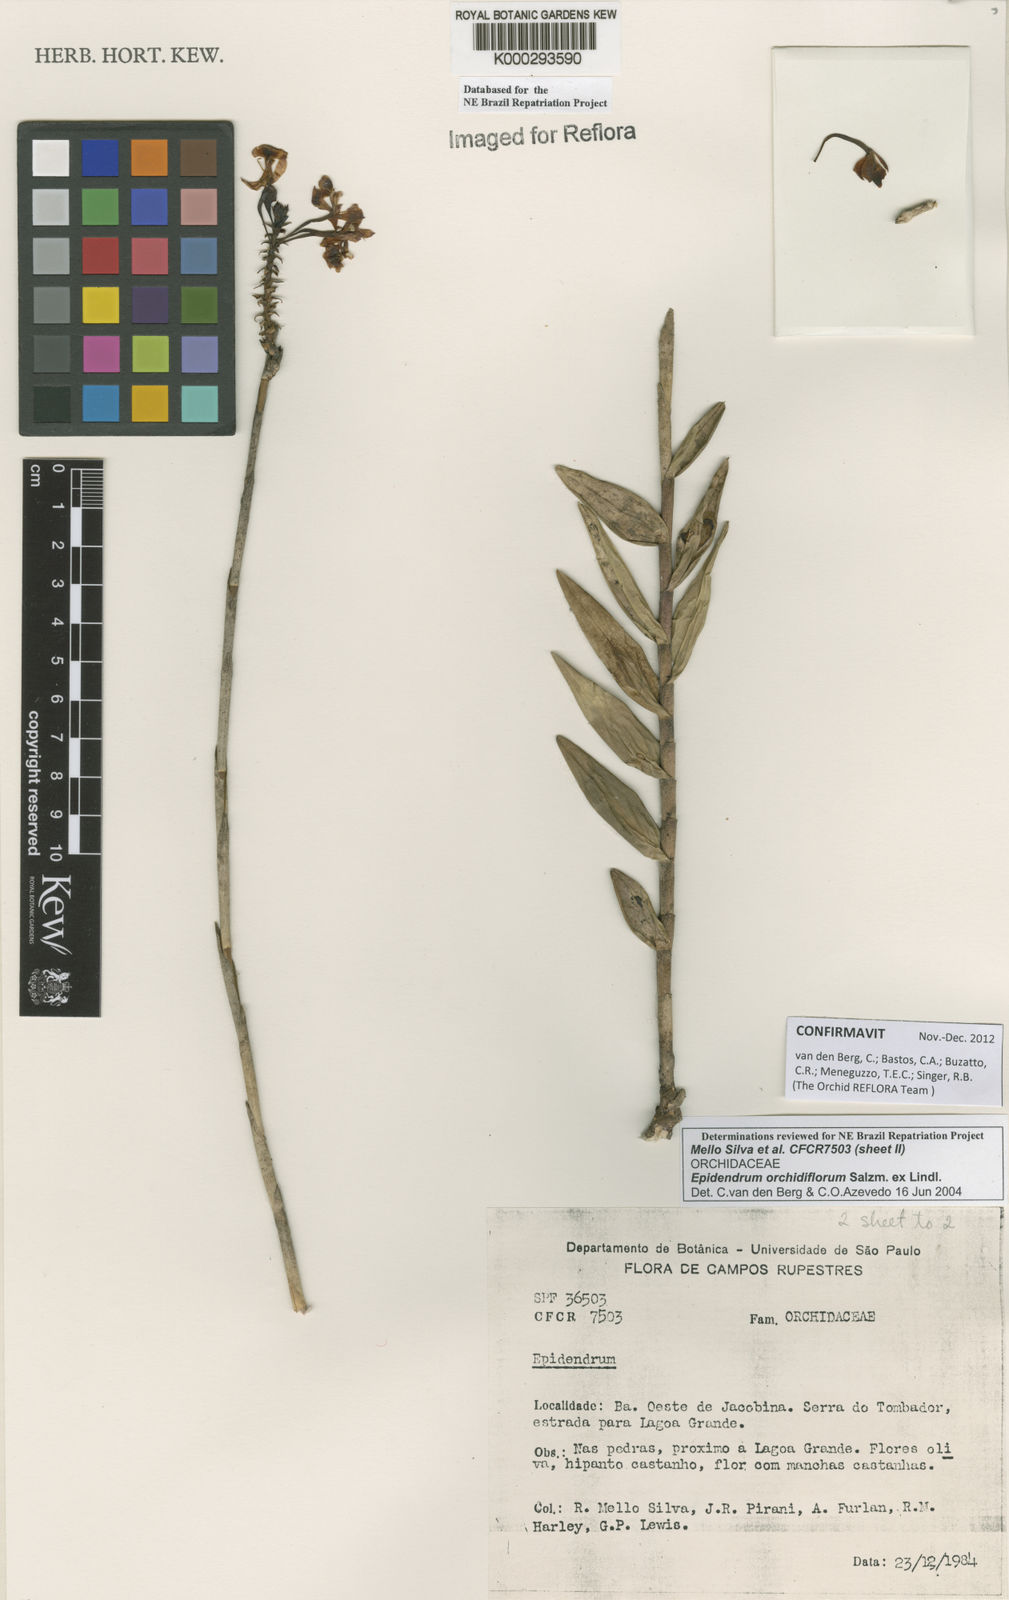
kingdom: Plantae
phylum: Tracheophyta
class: Liliopsida
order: Asparagales
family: Orchidaceae
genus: Epidendrum
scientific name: Epidendrum orchidiflorum
